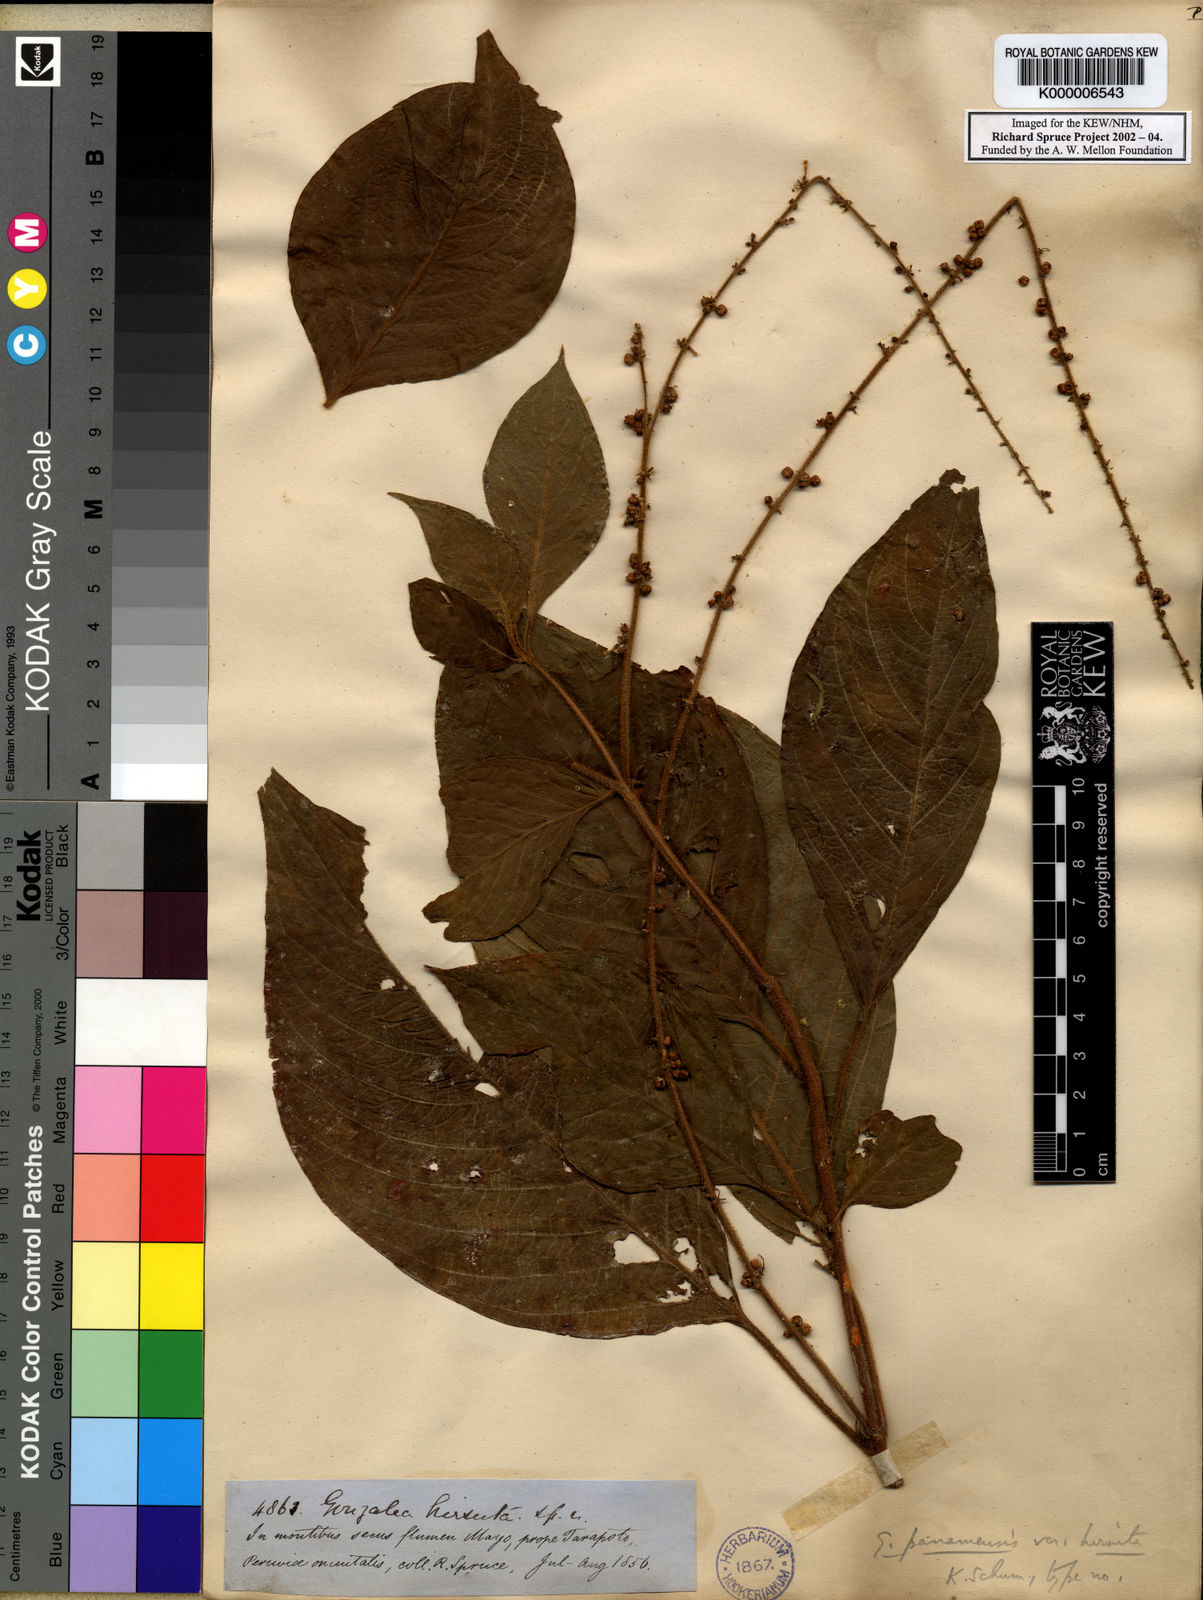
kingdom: Plantae
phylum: Tracheophyta
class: Magnoliopsida
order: Gentianales
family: Rubiaceae
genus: Gonzalagunia
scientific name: Gonzalagunia cornifolia
